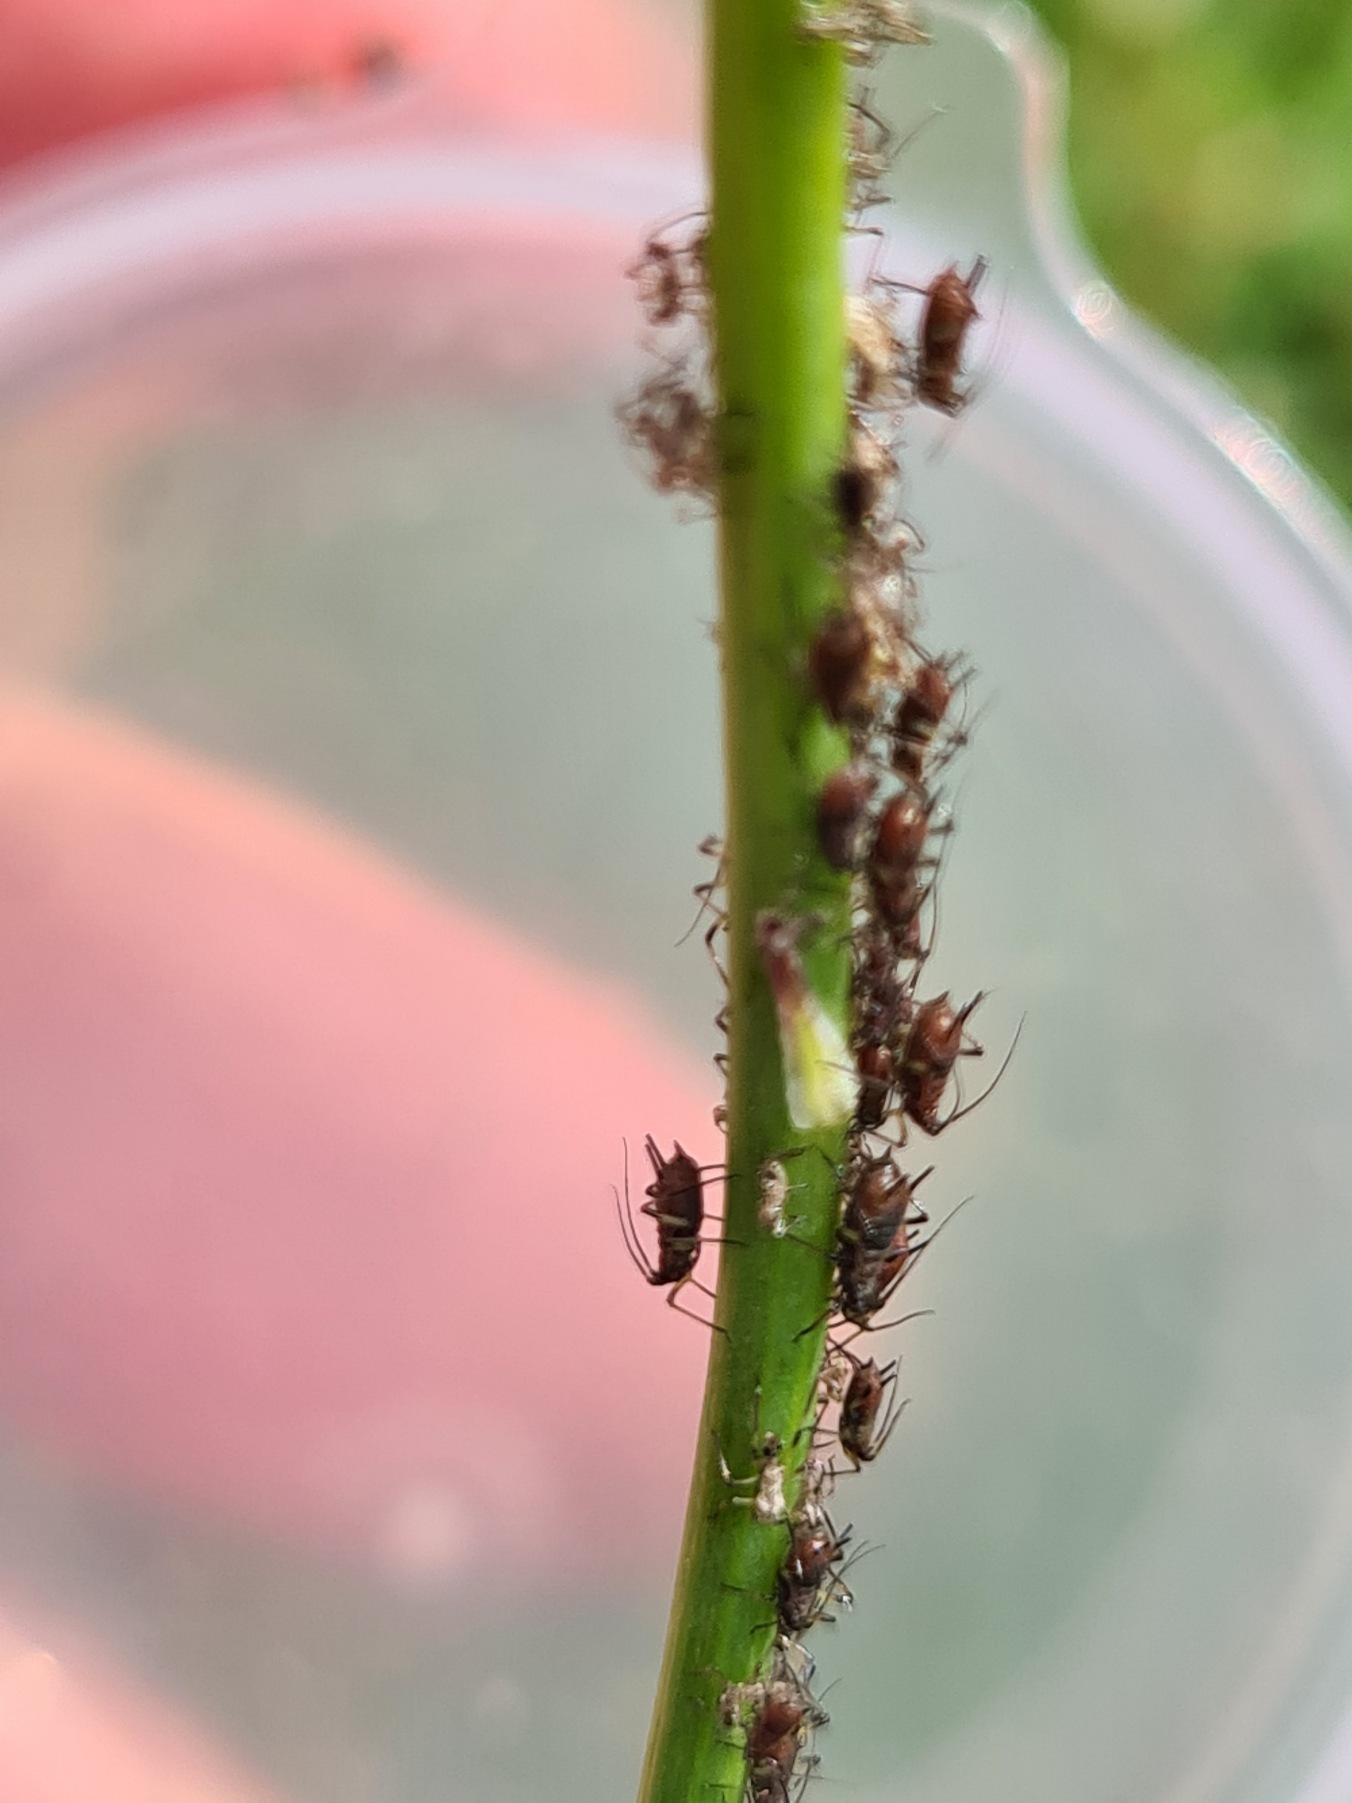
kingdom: Animalia
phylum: Arthropoda
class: Insecta
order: Hemiptera
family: Aphididae
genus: Uroleucon
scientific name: Uroleucon hypochoeridis
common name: Brun kongepenbladlus
